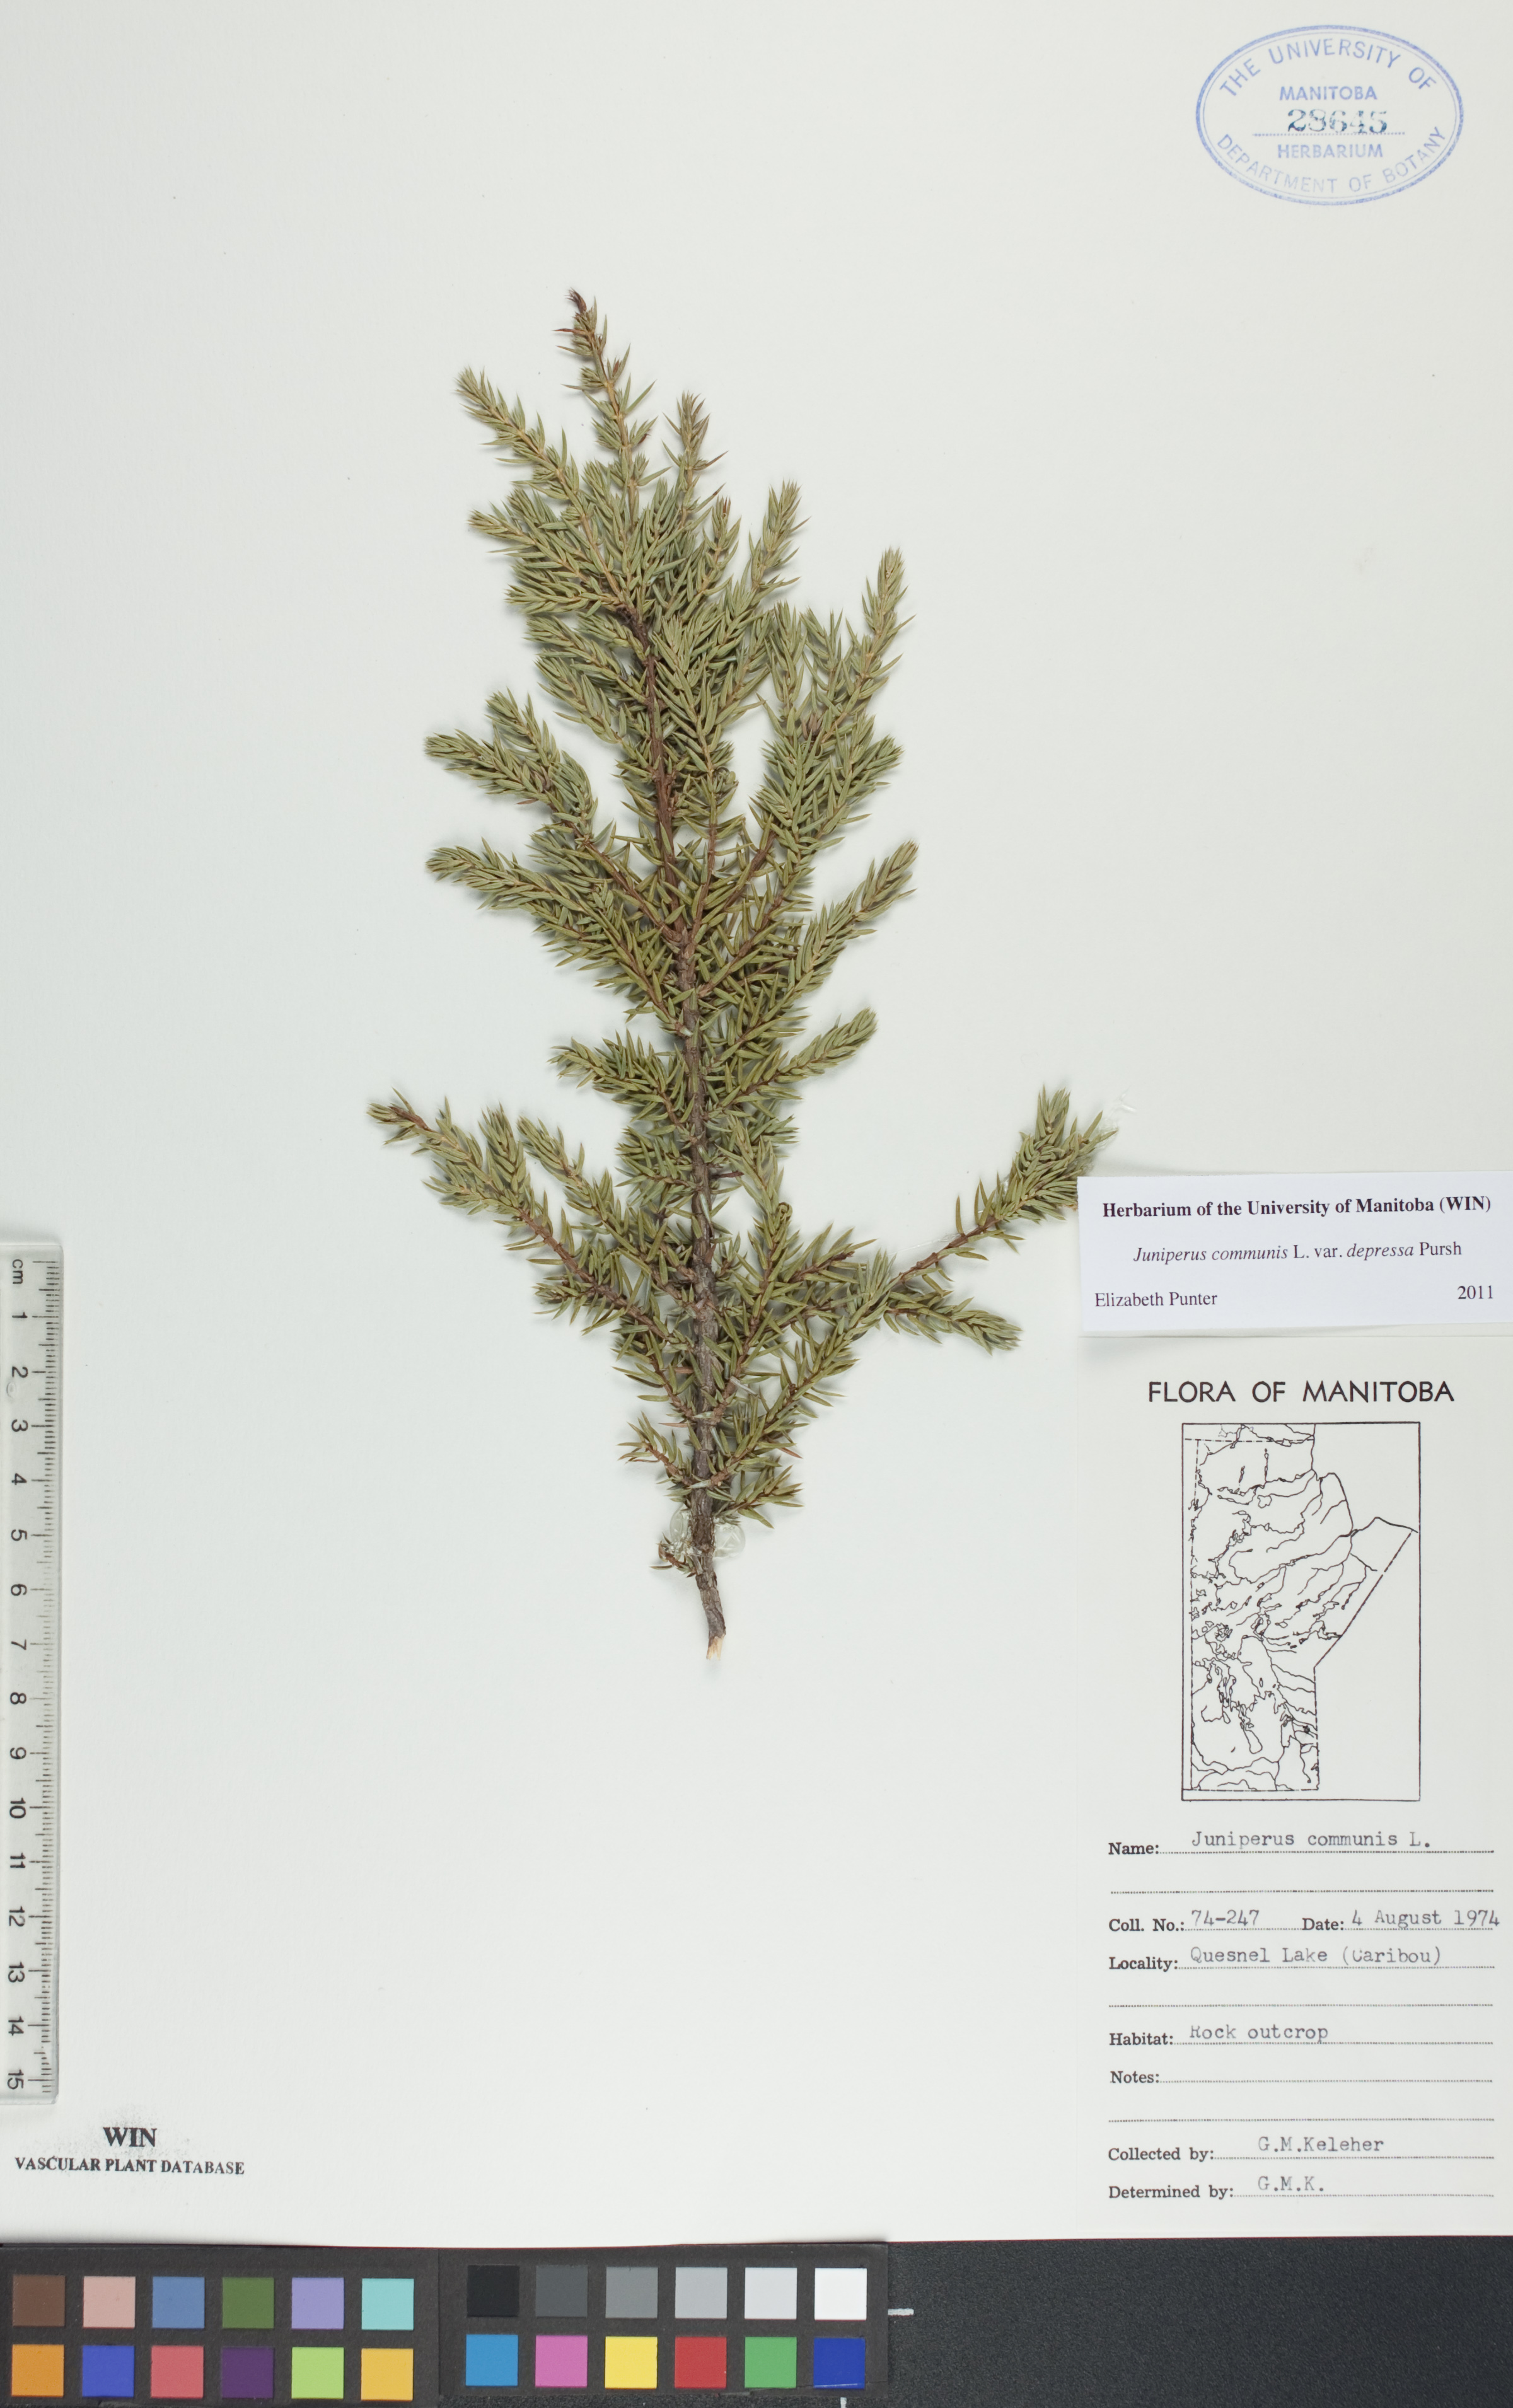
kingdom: Plantae
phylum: Tracheophyta
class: Pinopsida
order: Pinales
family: Cupressaceae
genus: Juniperus
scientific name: Juniperus communis
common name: Common juniper
